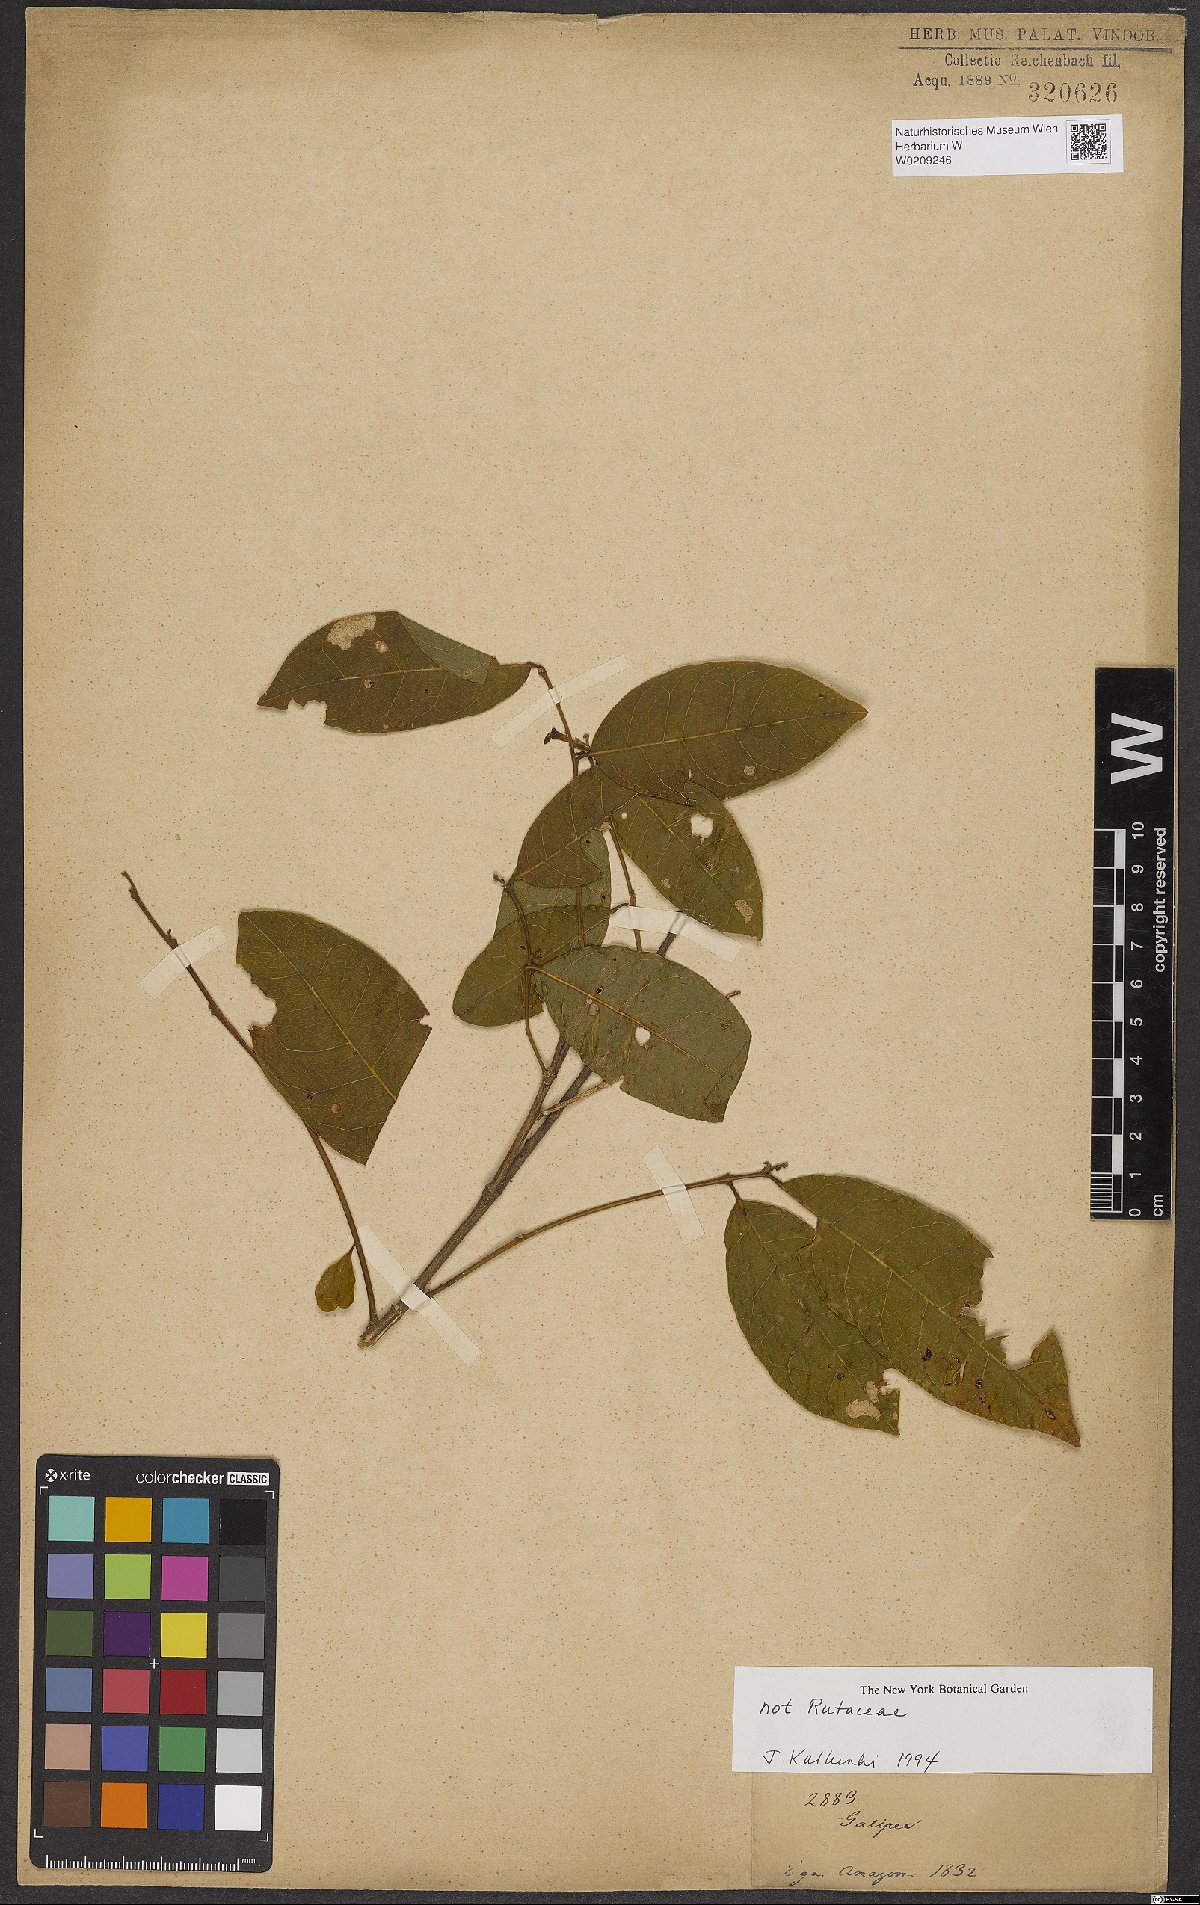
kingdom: Plantae
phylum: Tracheophyta
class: Magnoliopsida
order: Fabales
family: Polygalaceae
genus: Diclidanthera
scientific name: Diclidanthera
